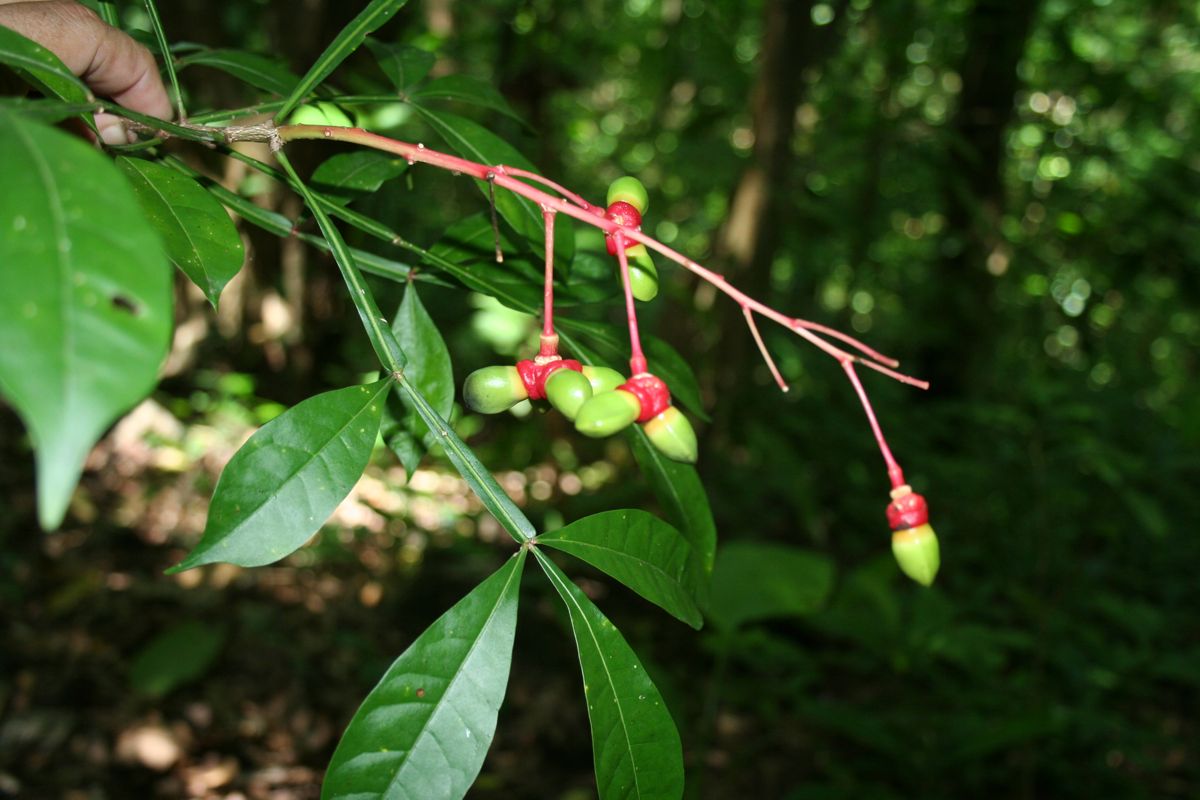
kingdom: Plantae
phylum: Tracheophyta
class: Magnoliopsida
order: Sapindales
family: Simaroubaceae
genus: Quassia
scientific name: Quassia amara
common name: Quassia
